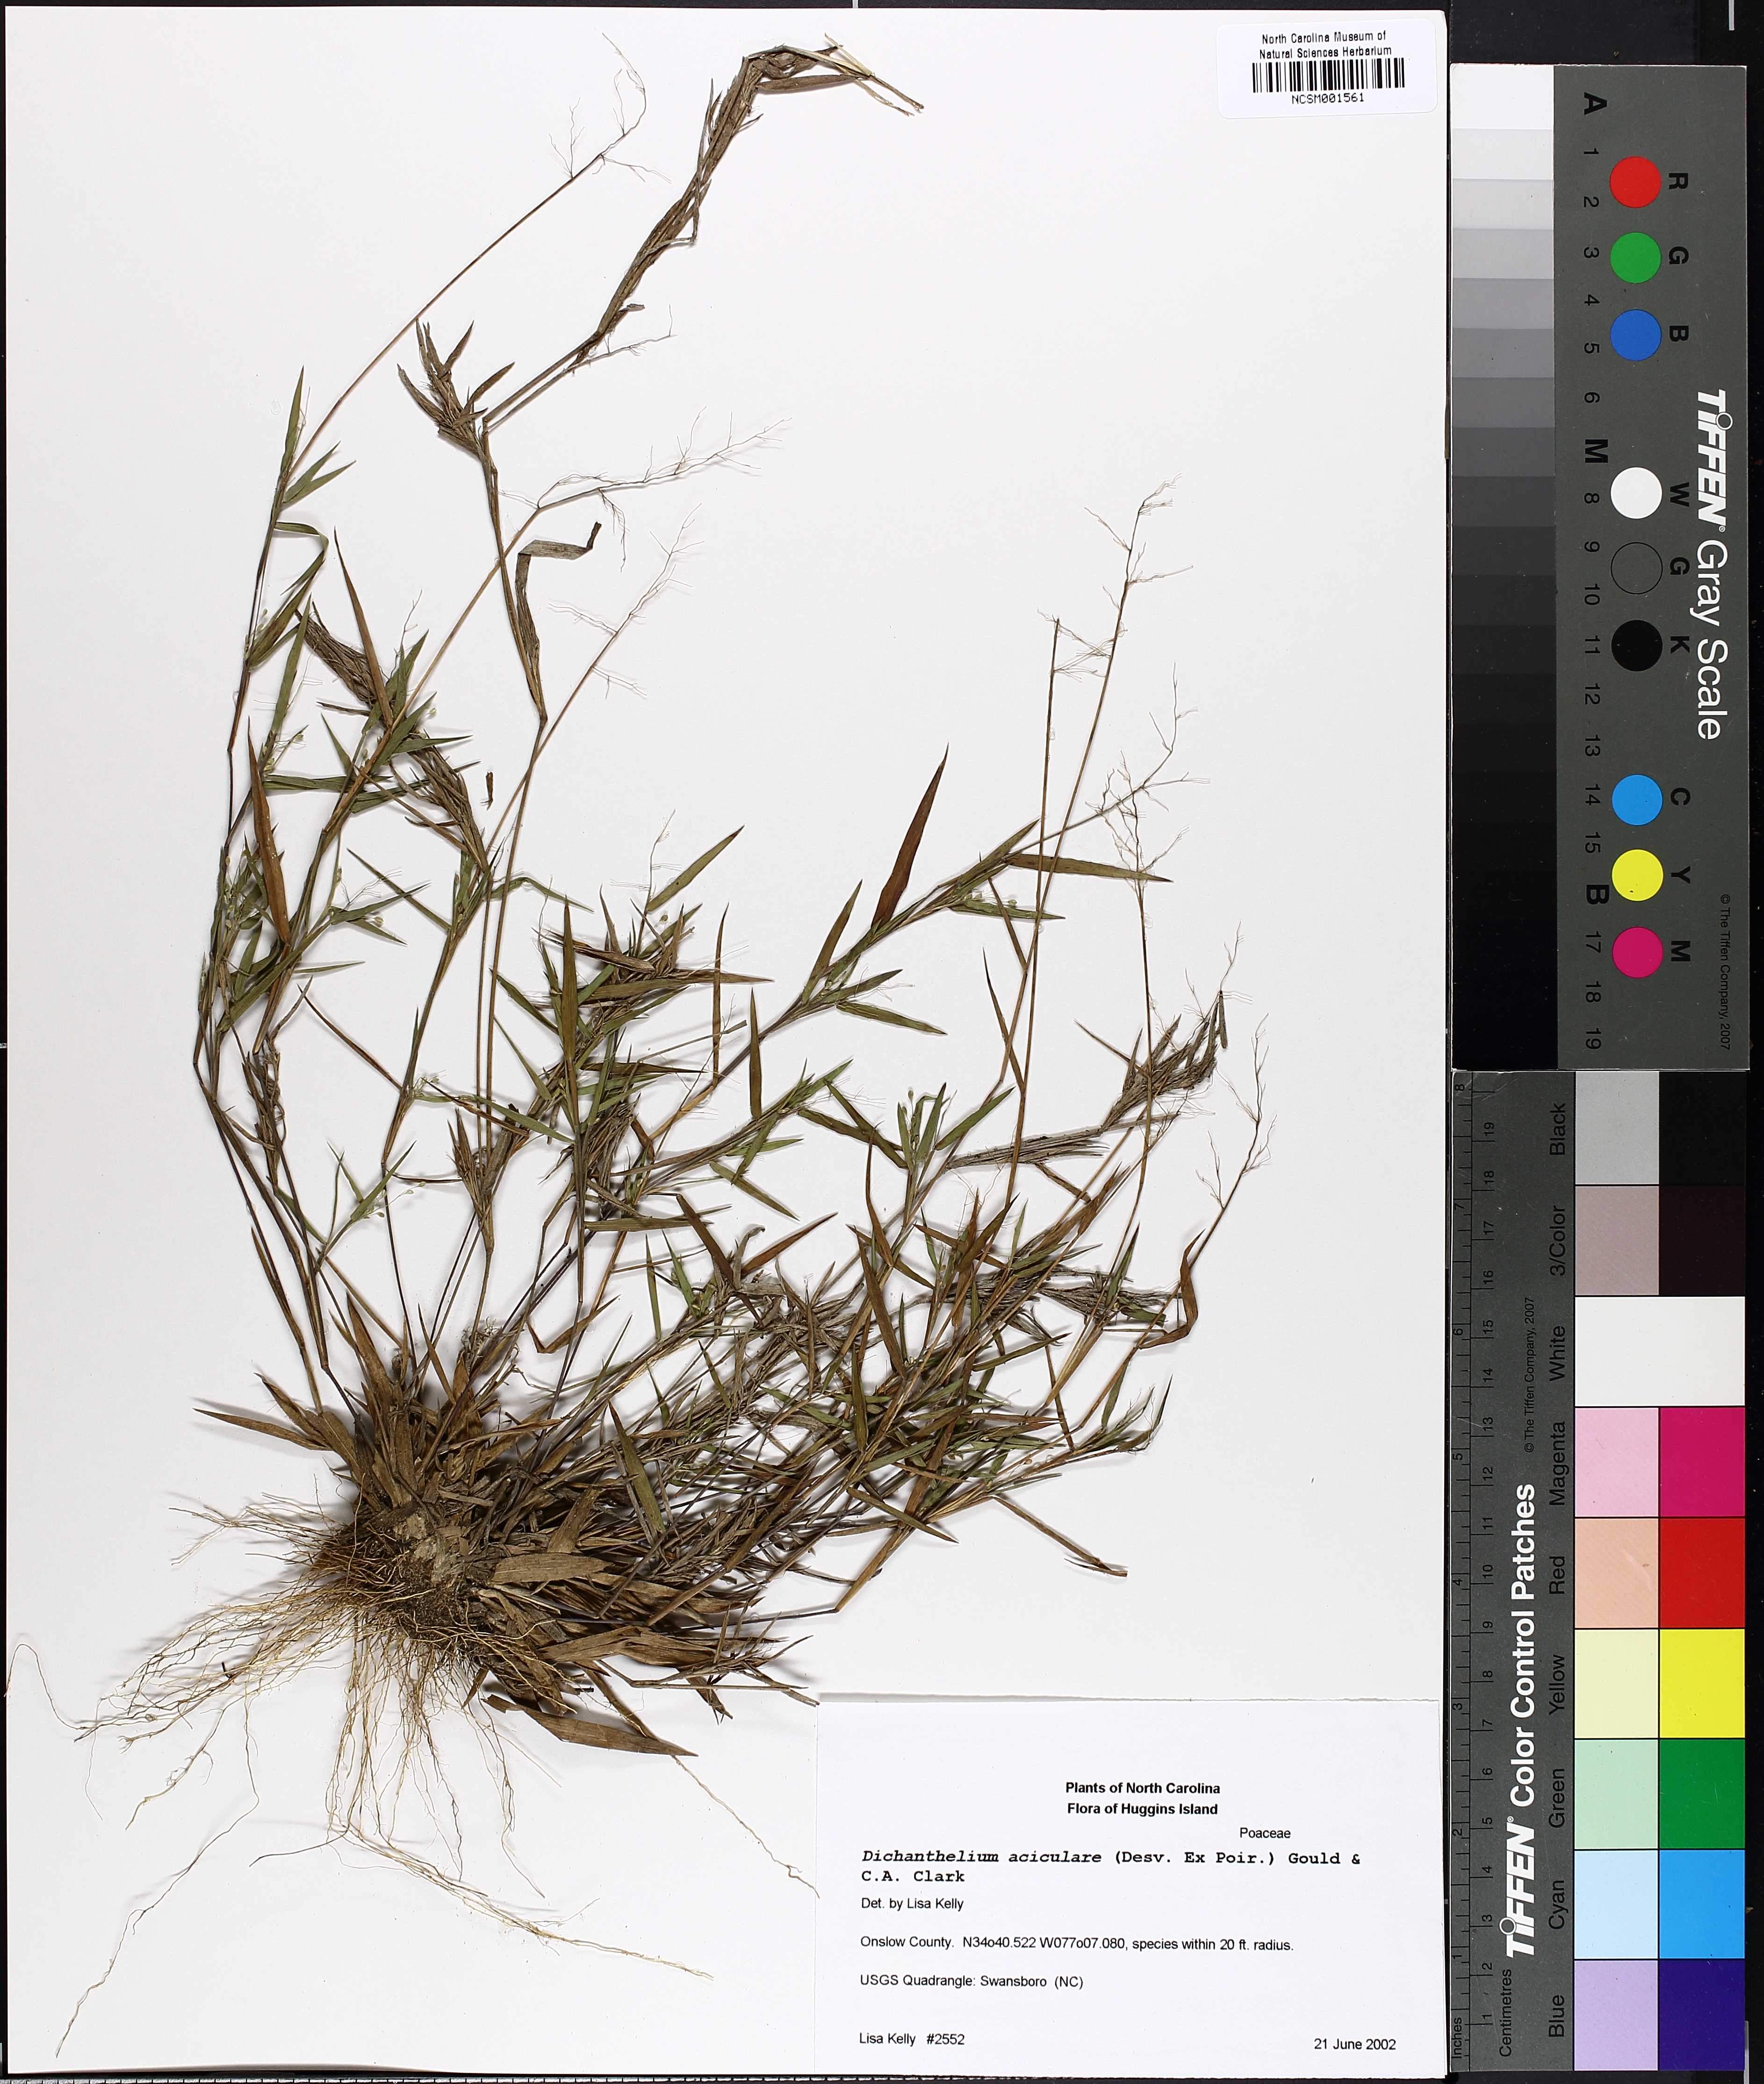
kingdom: Plantae
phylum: Tracheophyta
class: Liliopsida
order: Poales
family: Poaceae
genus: Dichanthelium
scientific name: Dichanthelium aciculare
